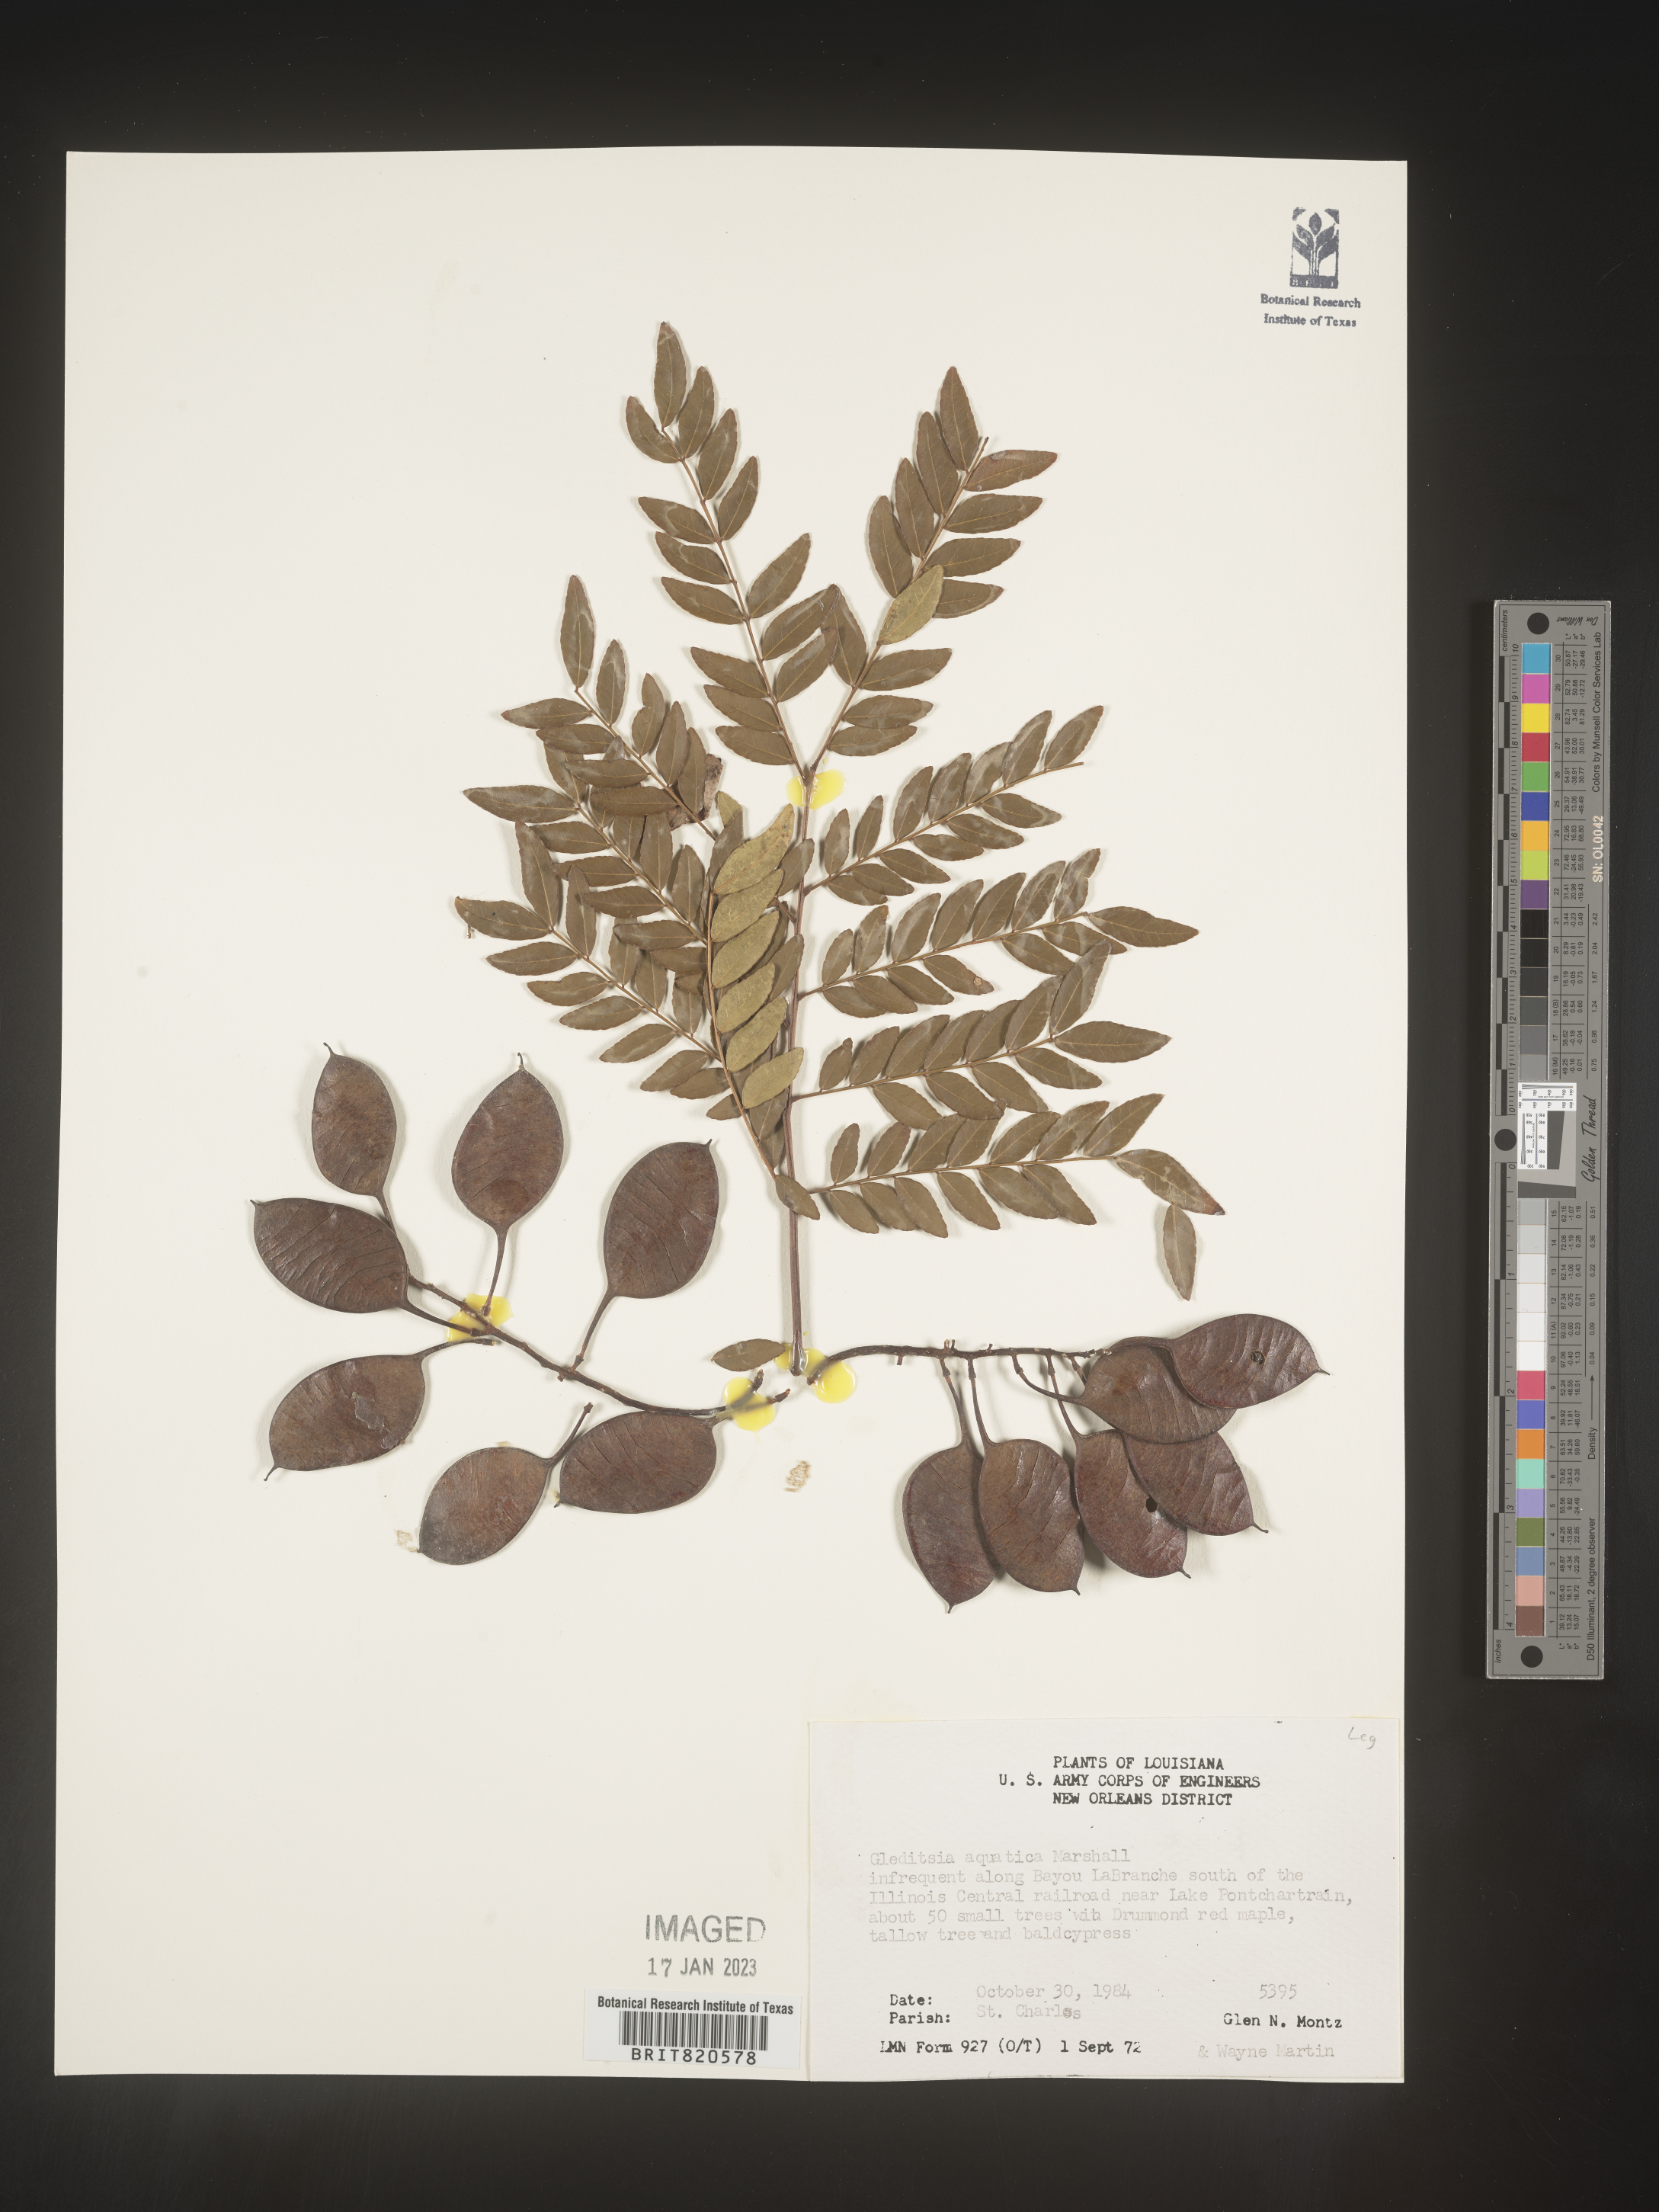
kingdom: Plantae
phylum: Tracheophyta
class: Magnoliopsida
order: Fabales
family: Fabaceae
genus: Gleditsia
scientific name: Gleditsia aquatica
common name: Swamp-locust
